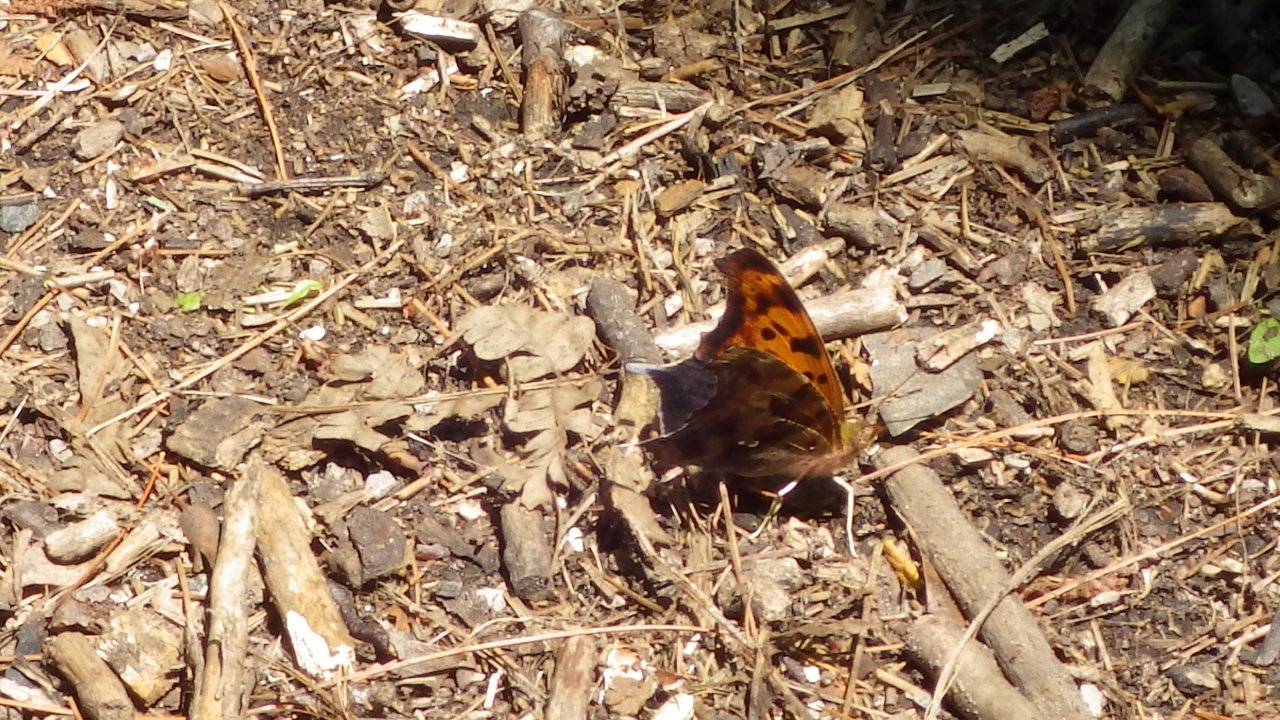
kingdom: Animalia
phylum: Arthropoda
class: Insecta
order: Lepidoptera
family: Nymphalidae
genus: Polygonia
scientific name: Polygonia interrogationis
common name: Question Mark
